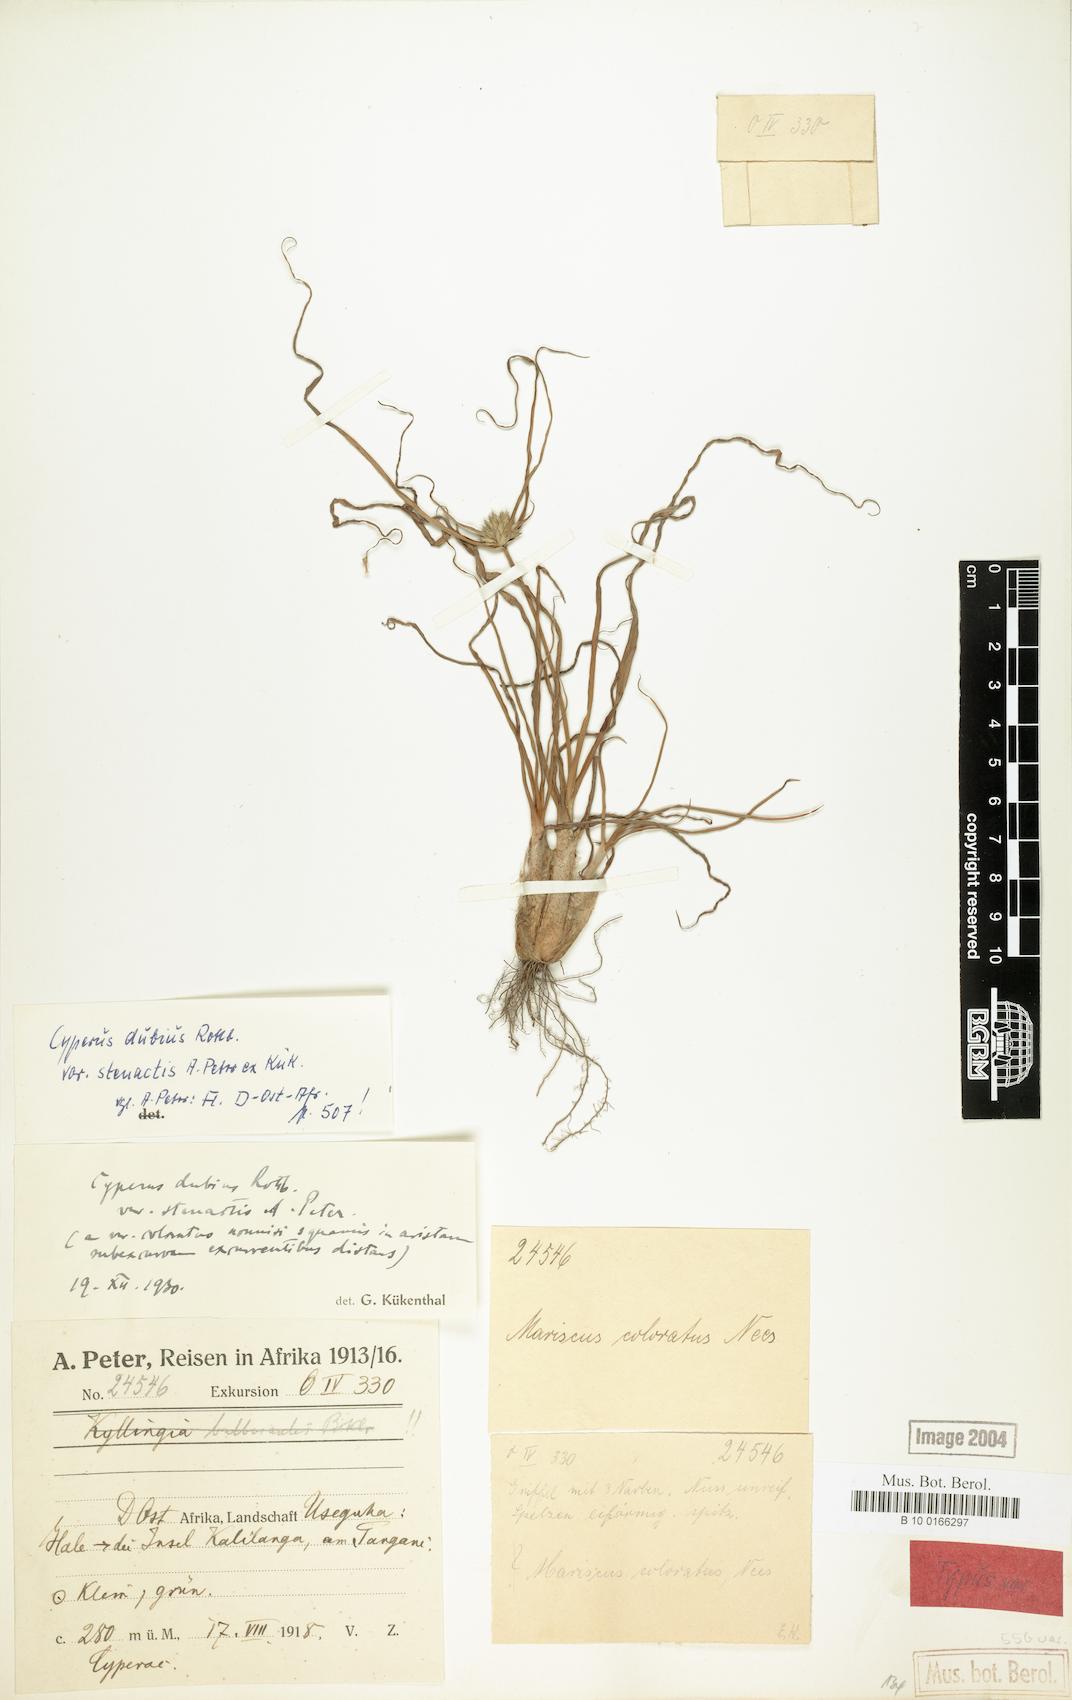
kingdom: Plantae
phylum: Tracheophyta
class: Liliopsida
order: Poales
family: Cyperaceae
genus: Cyperus
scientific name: Cyperus dubius
